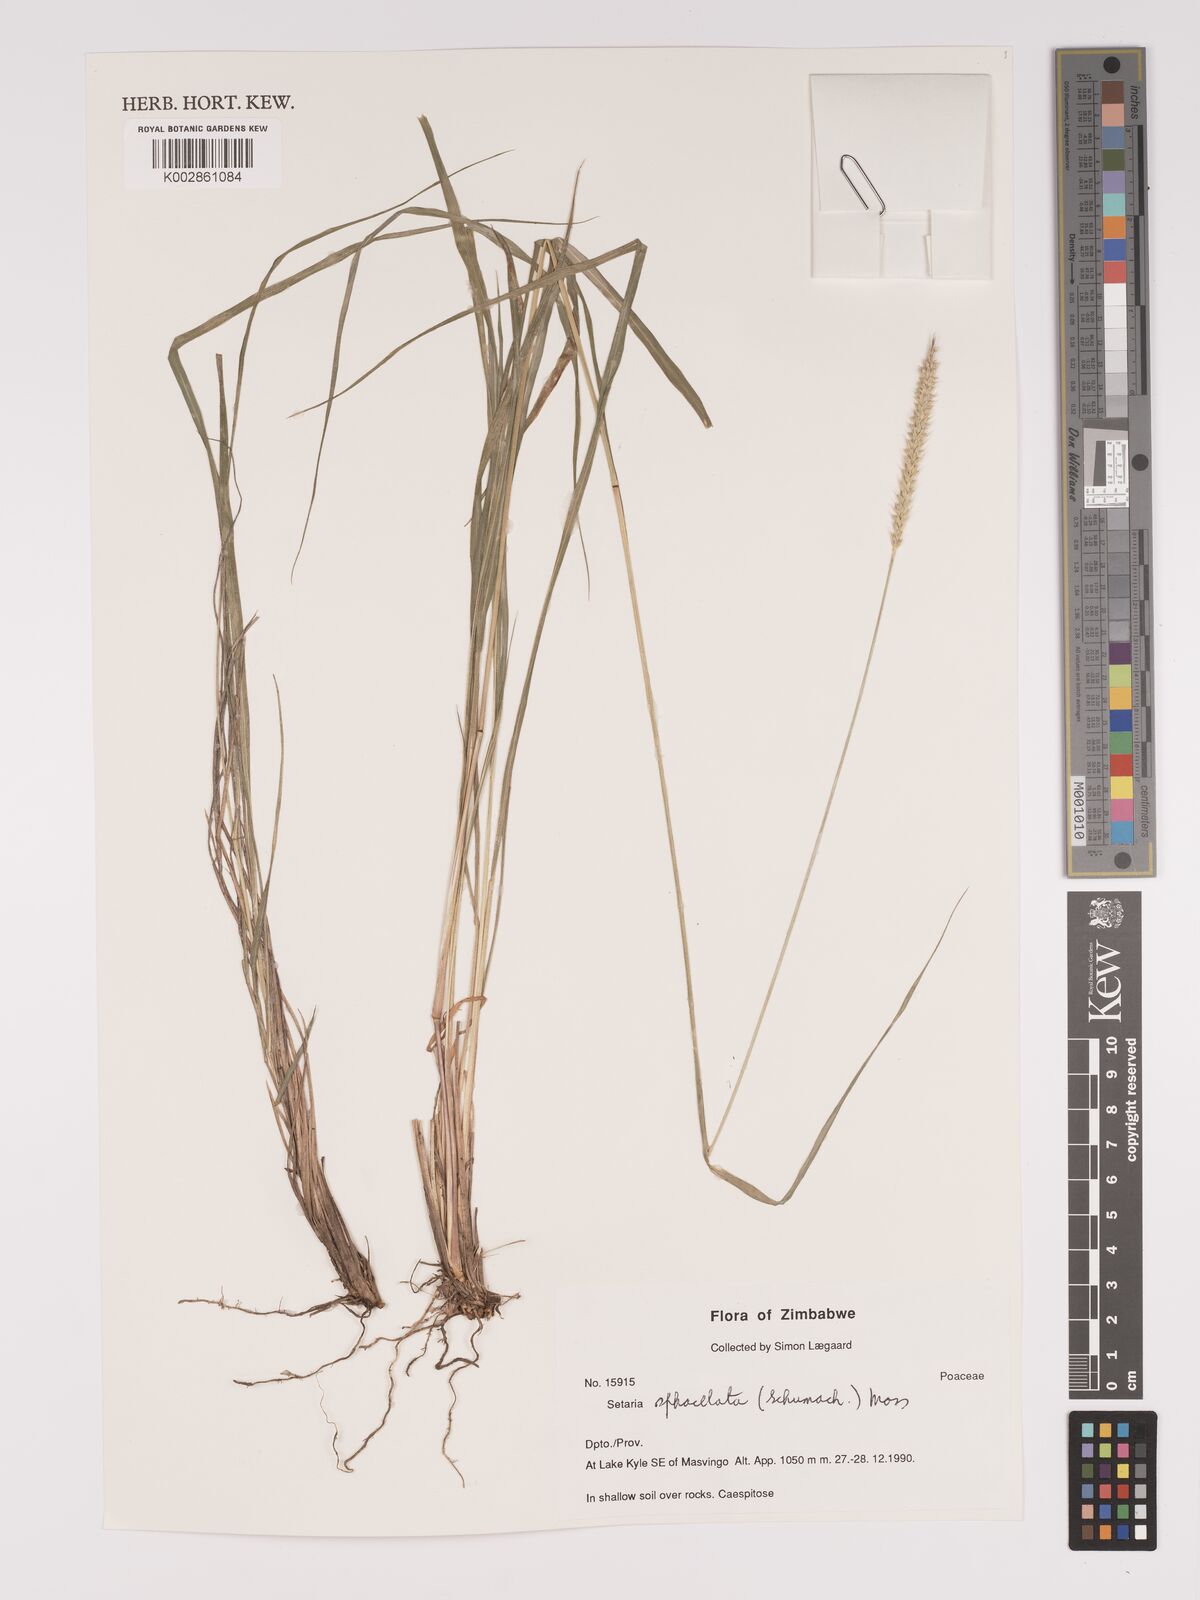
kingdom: Plantae
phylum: Tracheophyta
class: Liliopsida
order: Poales
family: Poaceae
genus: Setaria
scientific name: Setaria sphacelata
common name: African bristlegrass
